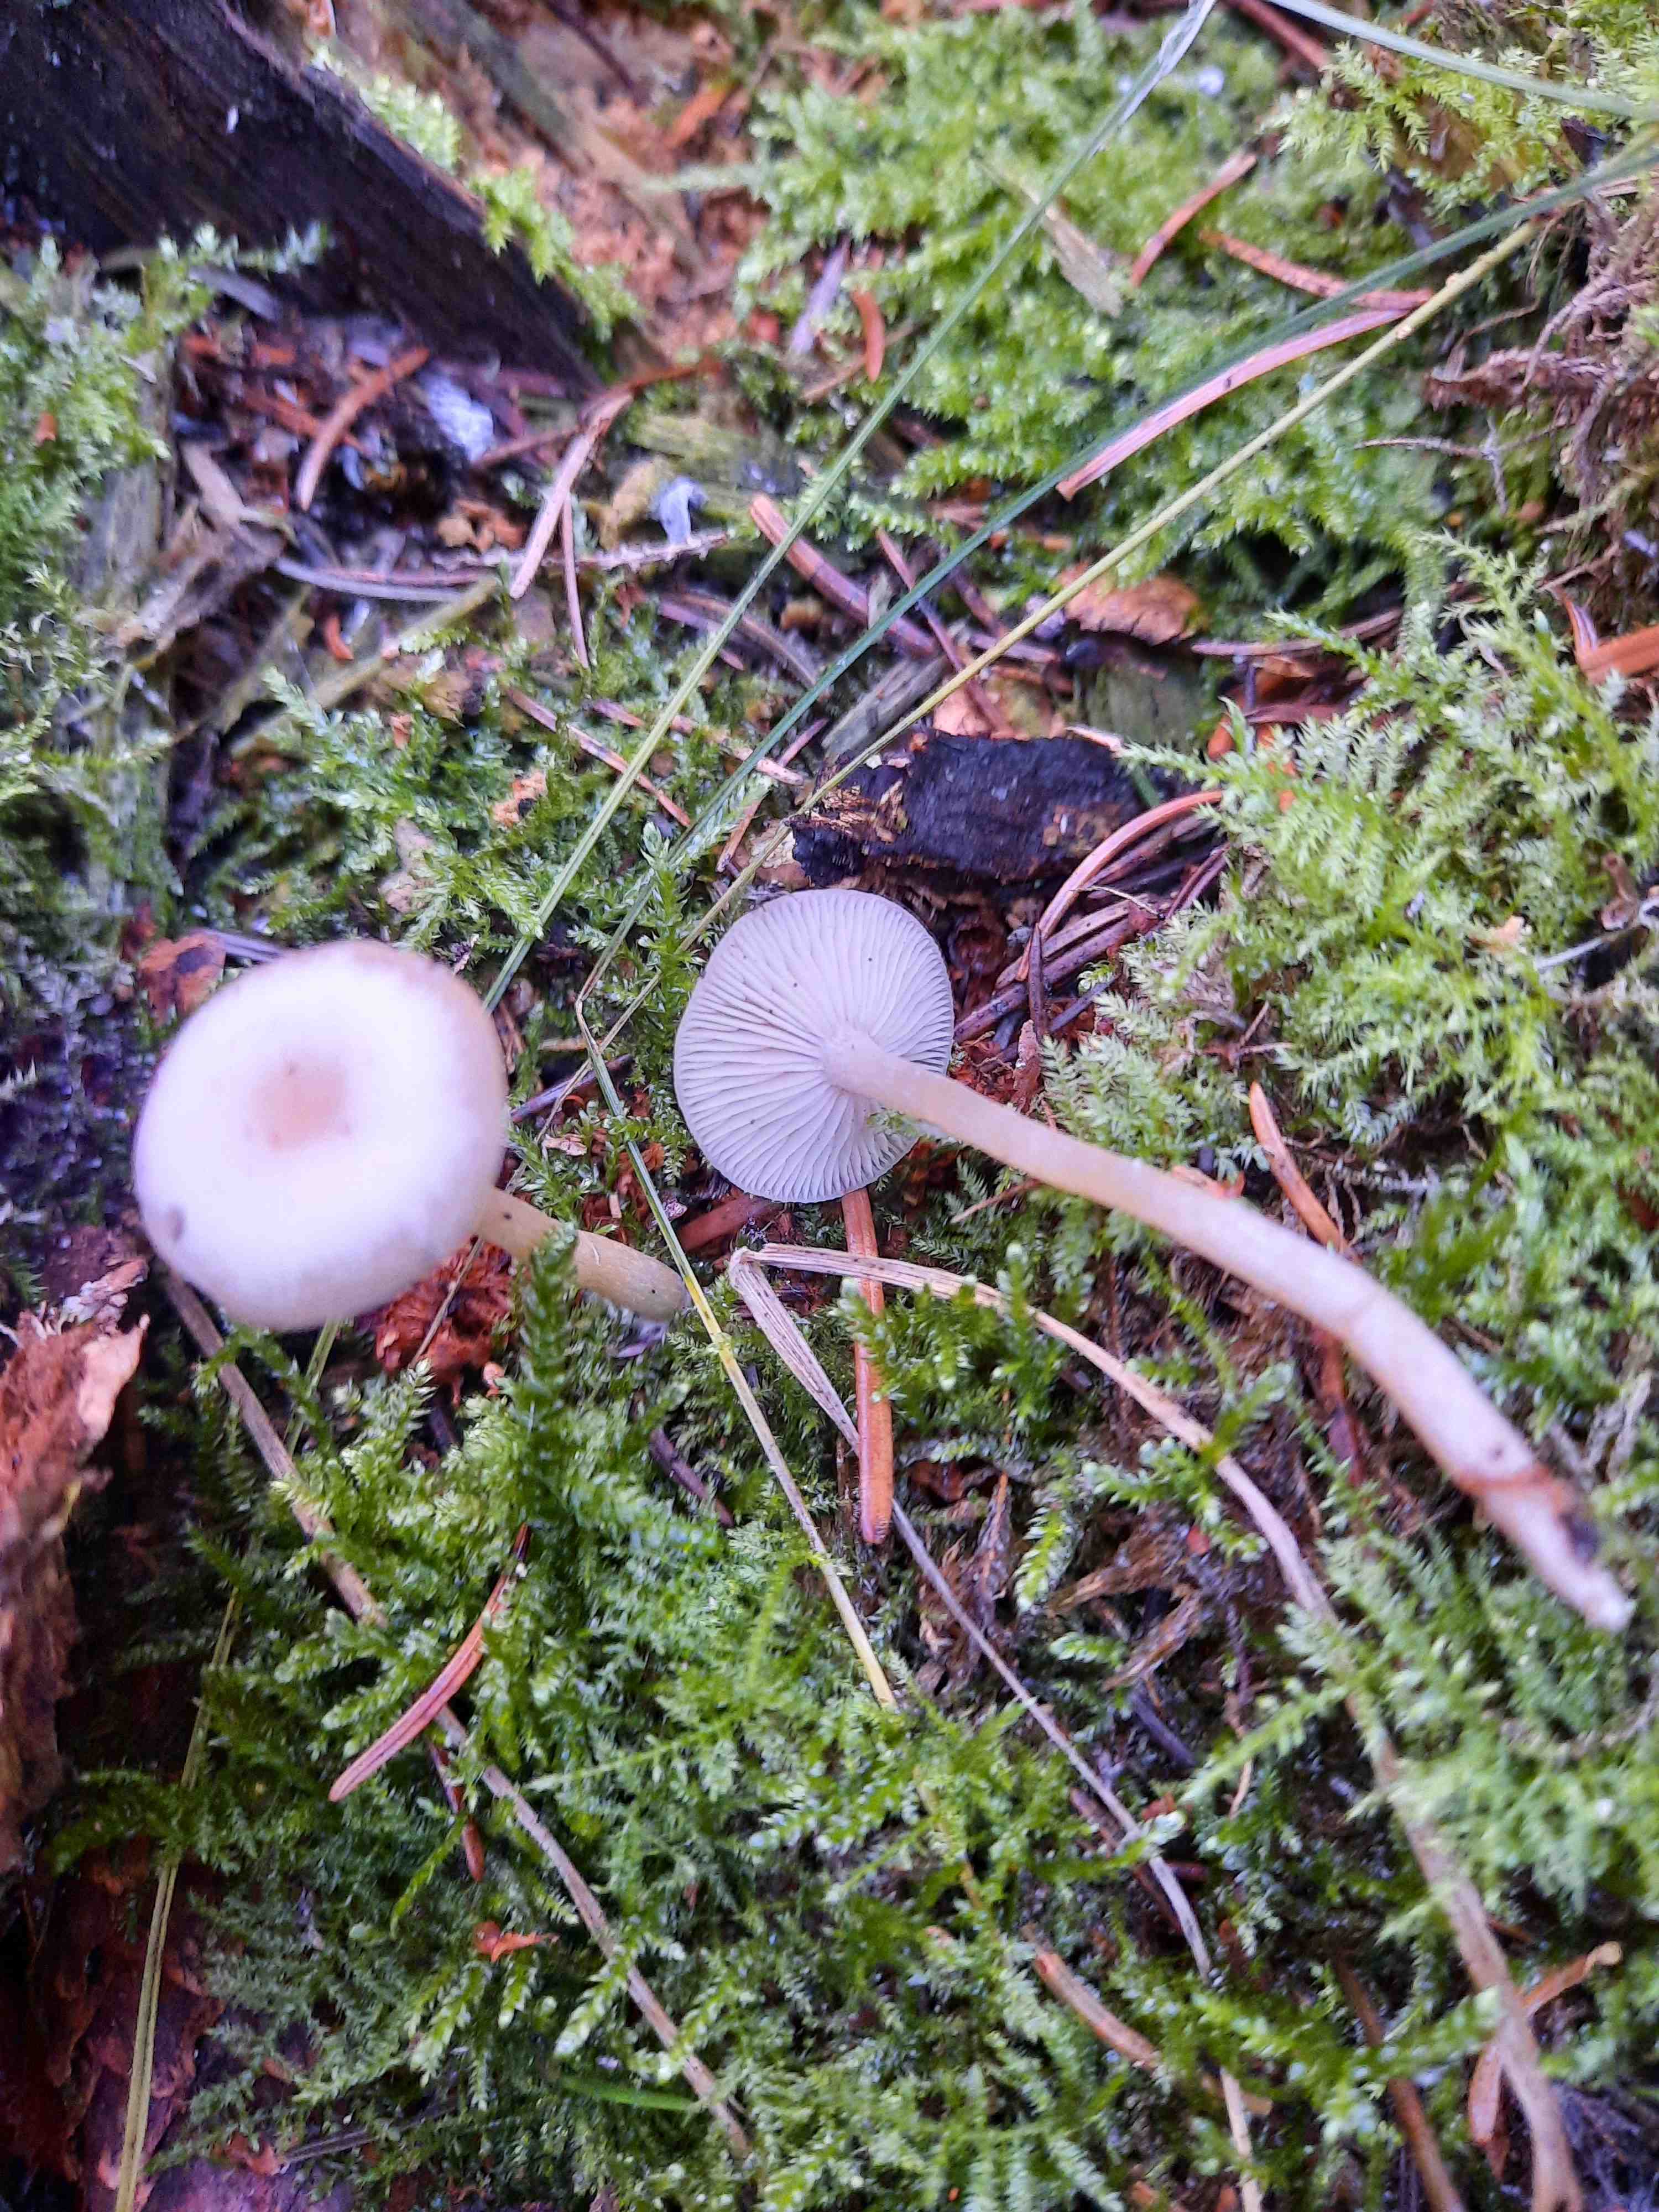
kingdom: Fungi
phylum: Basidiomycota
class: Agaricomycetes
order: Agaricales
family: Tricholomataceae
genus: Clitocybe
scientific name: Clitocybe fragrans
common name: vellugtende tragthat
